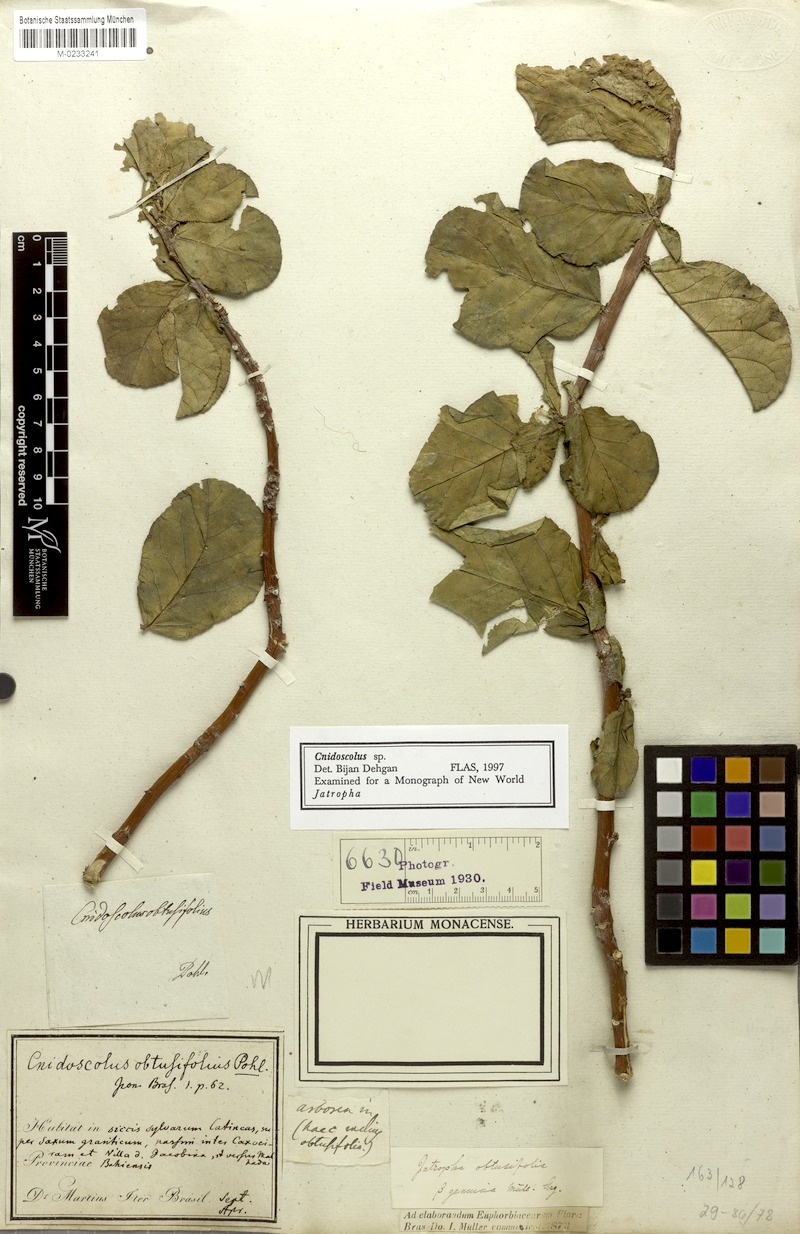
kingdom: Plantae
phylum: Tracheophyta
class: Magnoliopsida
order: Malpighiales
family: Euphorbiaceae
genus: Cnidoscolus
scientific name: Cnidoscolus obtusifolius
